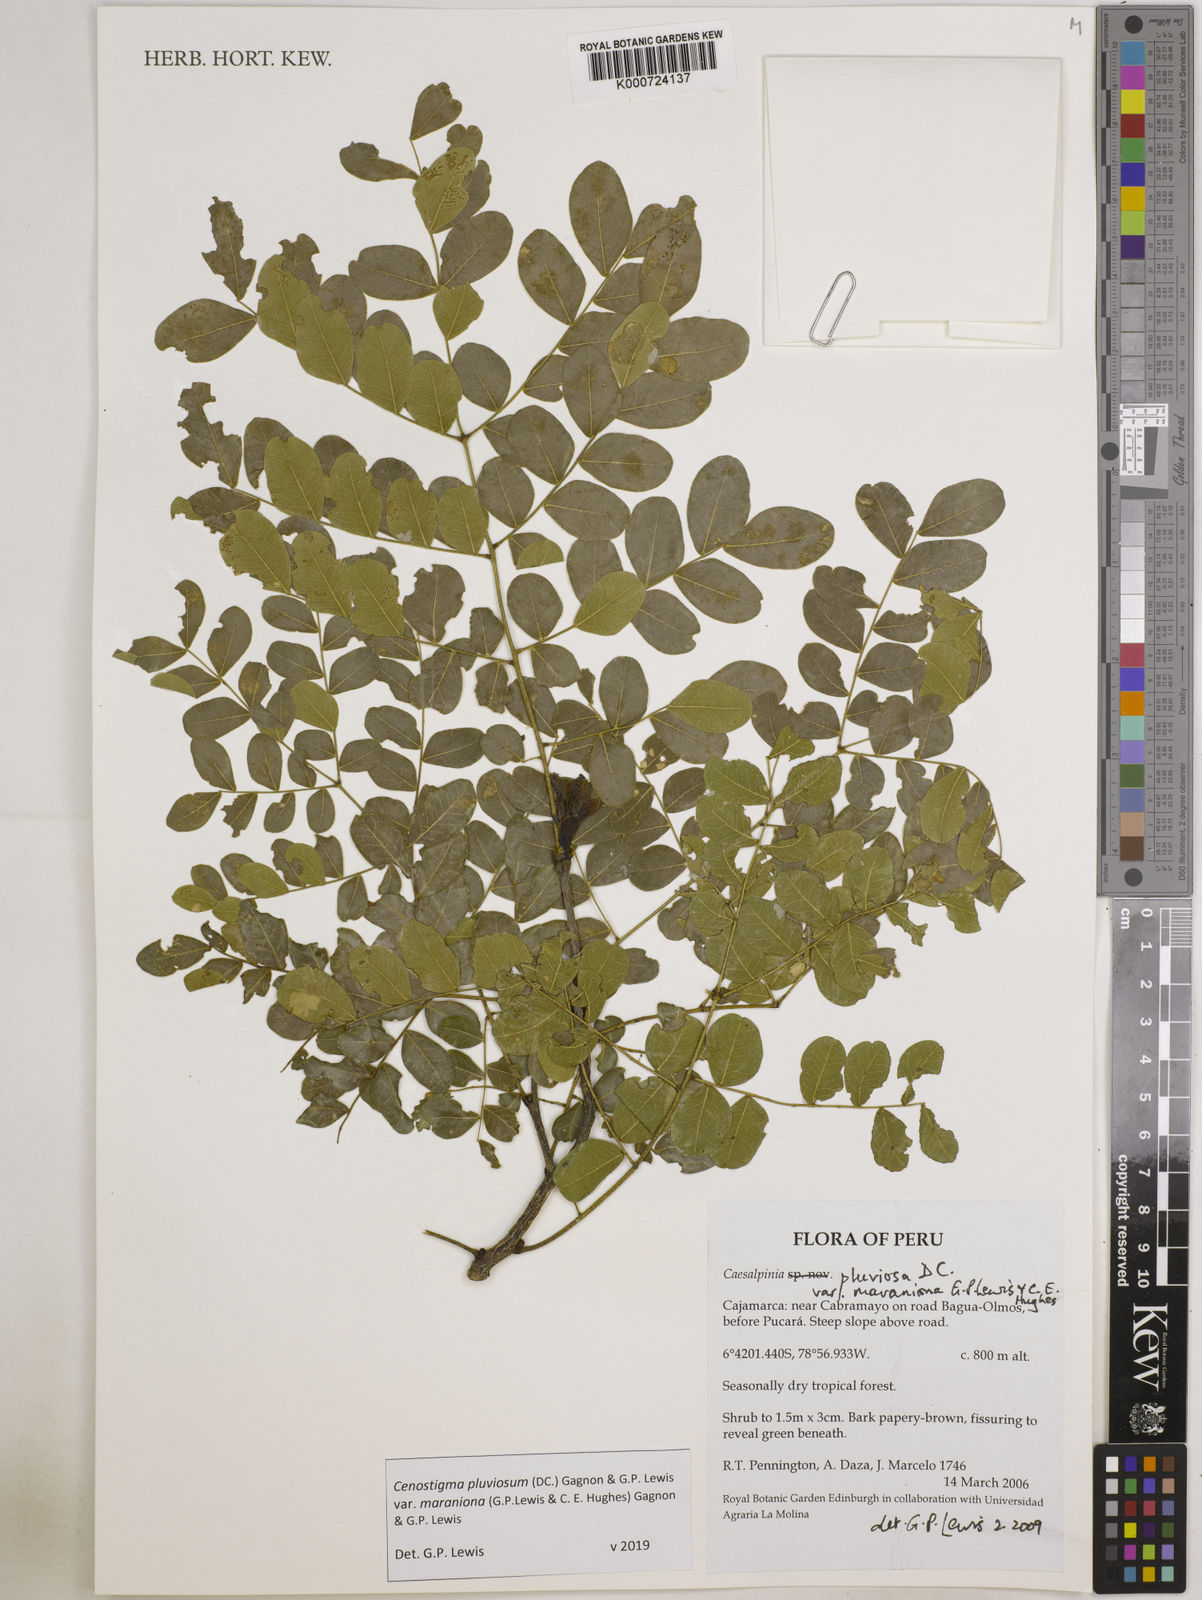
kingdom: Plantae
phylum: Tracheophyta
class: Magnoliopsida
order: Fabales
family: Fabaceae
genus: Cenostigma
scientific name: Cenostigma pluviosum
